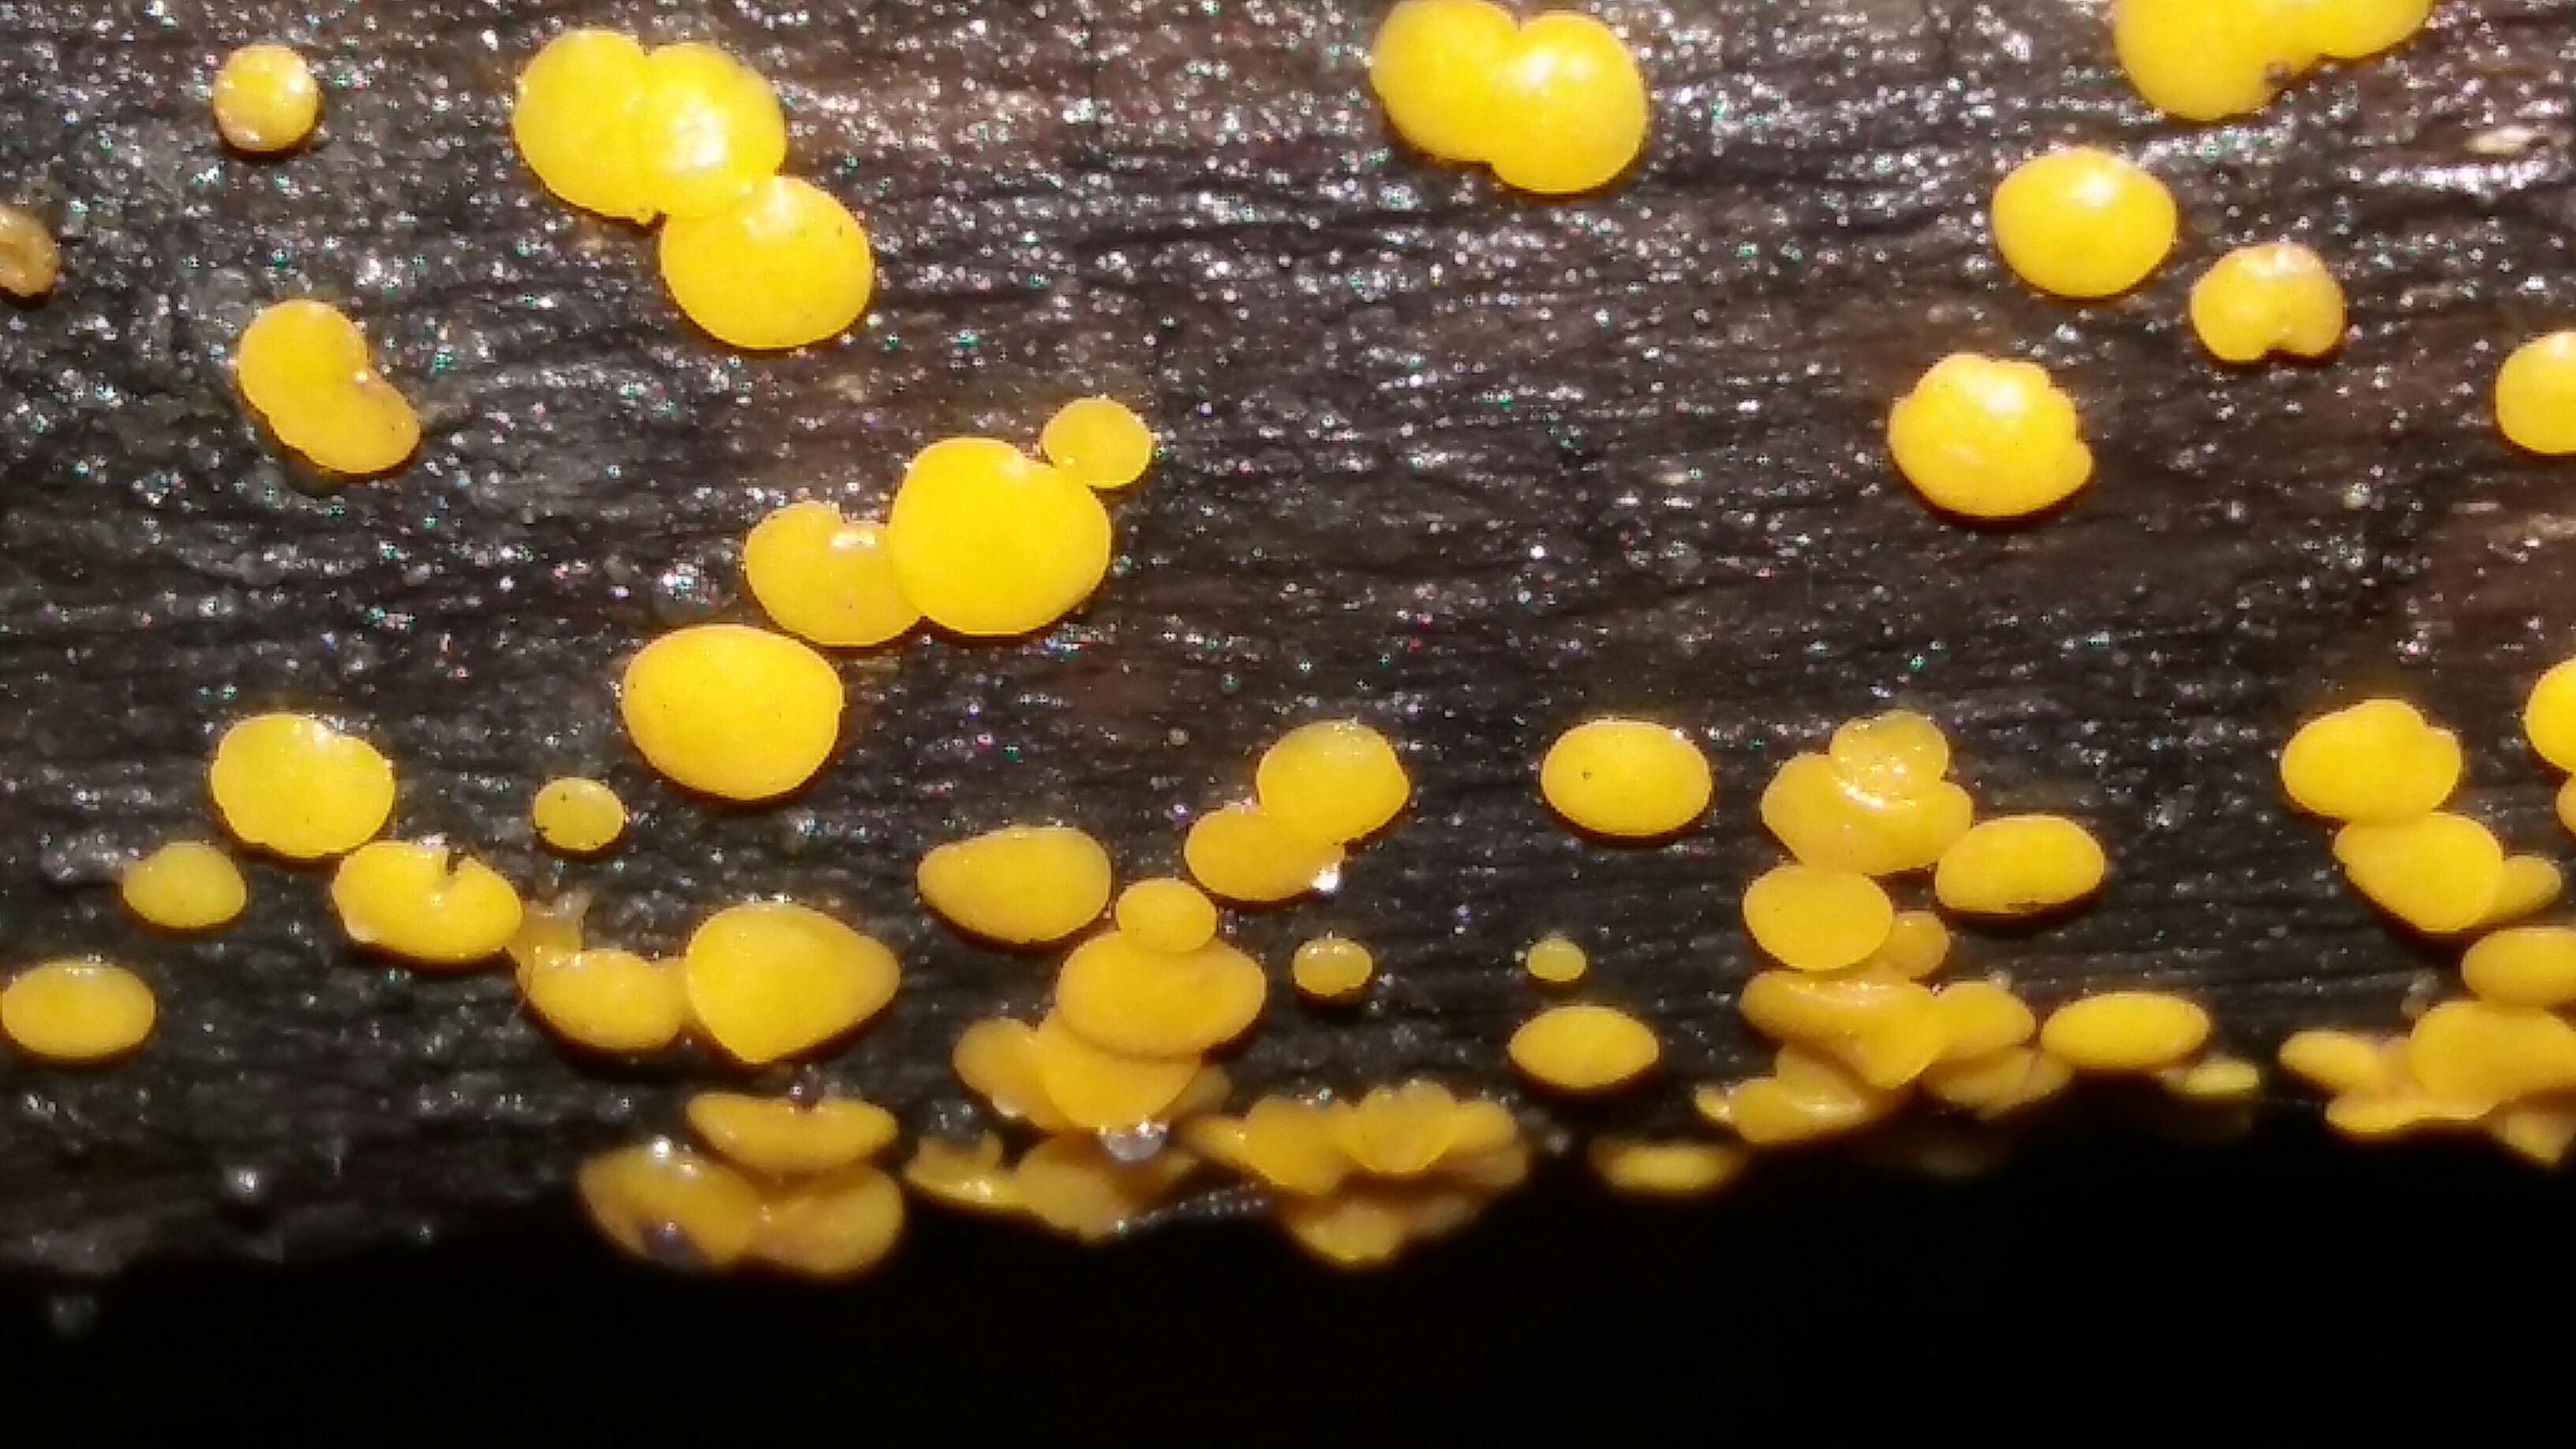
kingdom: Fungi
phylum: Ascomycota
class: Leotiomycetes
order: Helotiales
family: Pezizellaceae
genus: Calycina
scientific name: Calycina citrina
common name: almindelig gulskive
